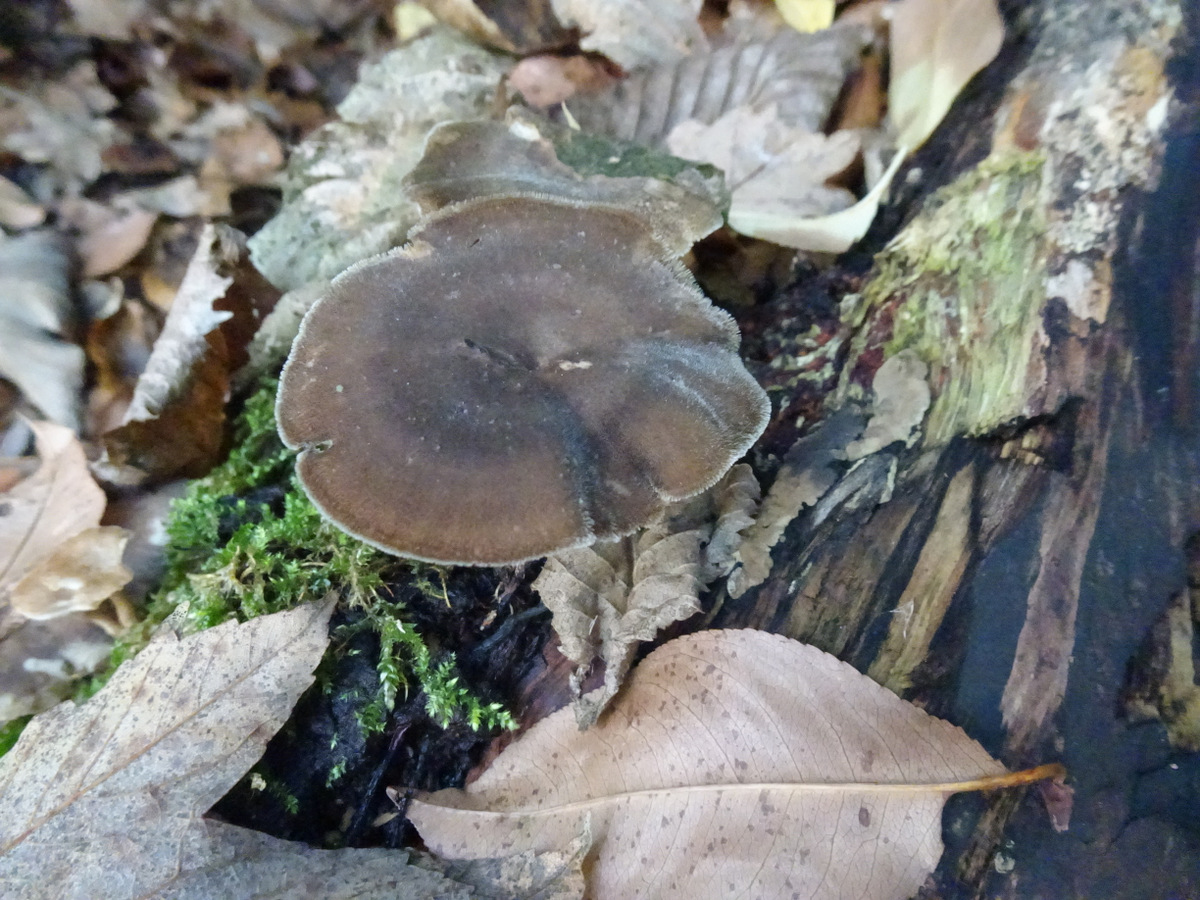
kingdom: Fungi
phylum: Basidiomycota
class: Agaricomycetes
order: Polyporales
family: Polyporaceae
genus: Lentinus
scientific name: Lentinus brumalis
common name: vinter-stilkporesvamp
